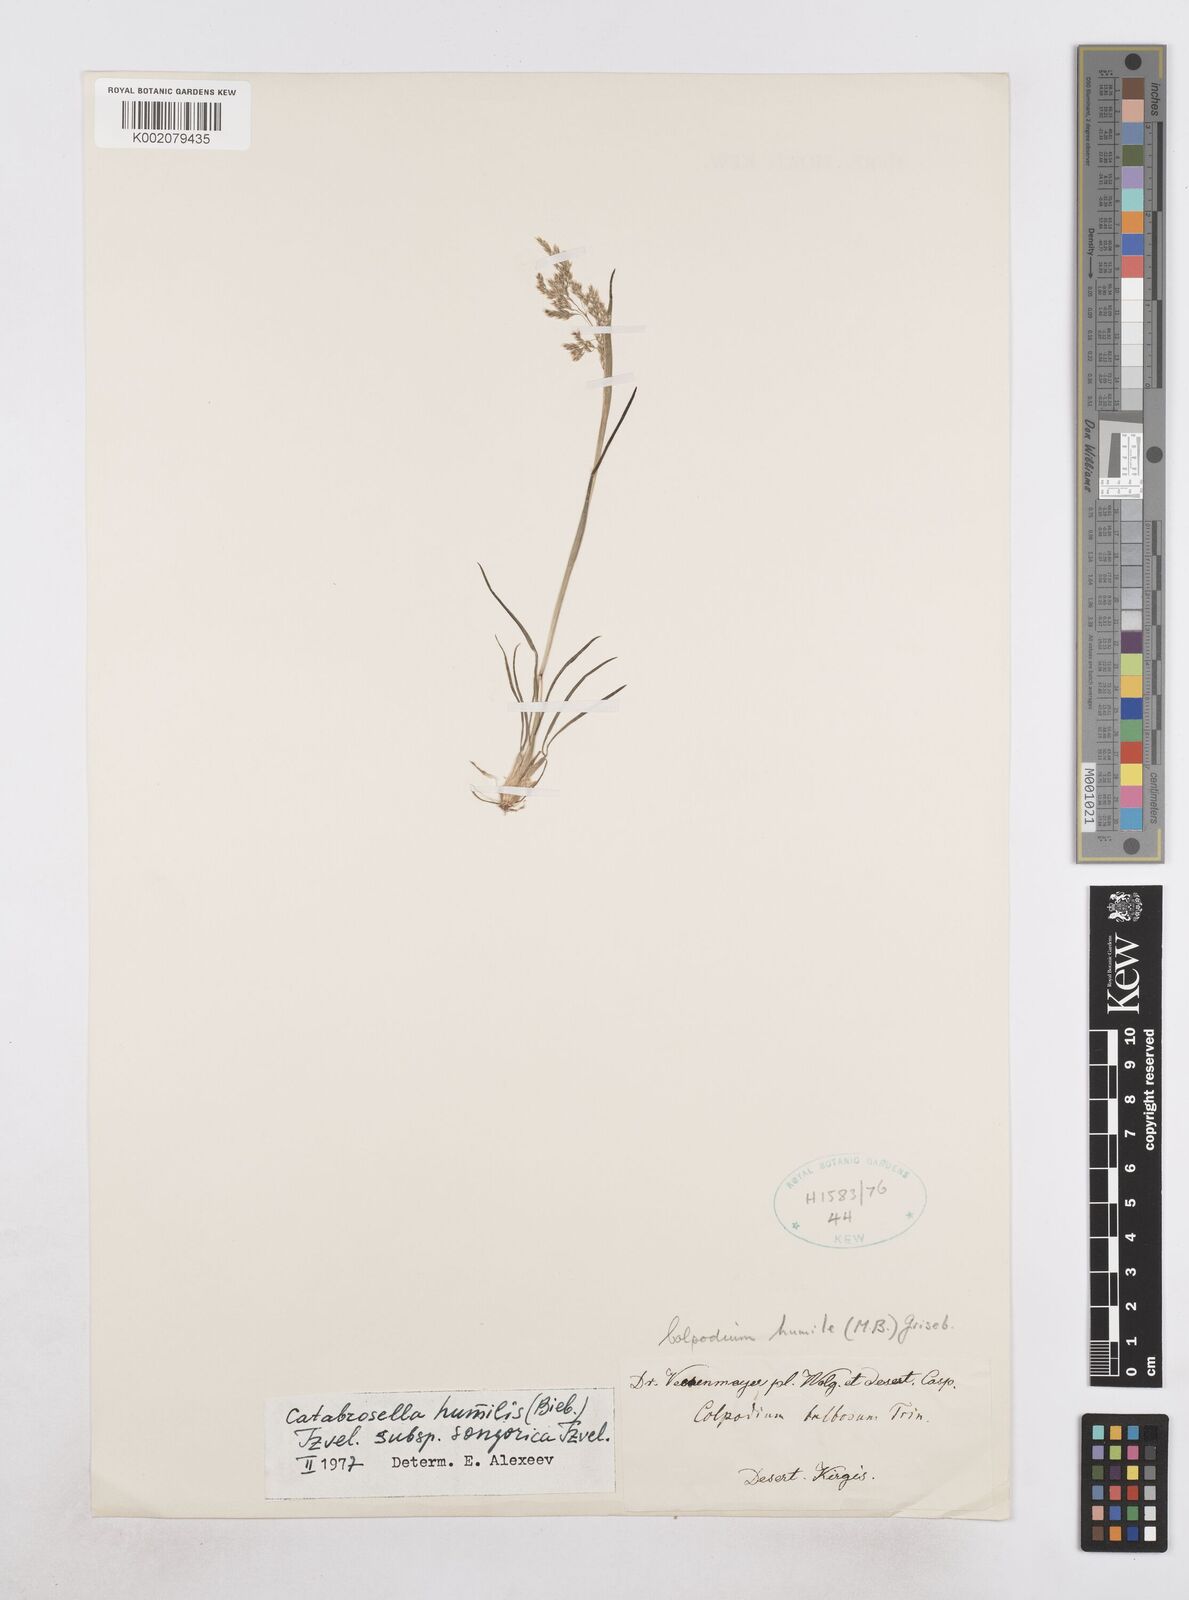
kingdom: Plantae
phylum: Tracheophyta
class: Liliopsida
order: Poales
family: Poaceae
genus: Catabrosella
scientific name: Catabrosella humilis
